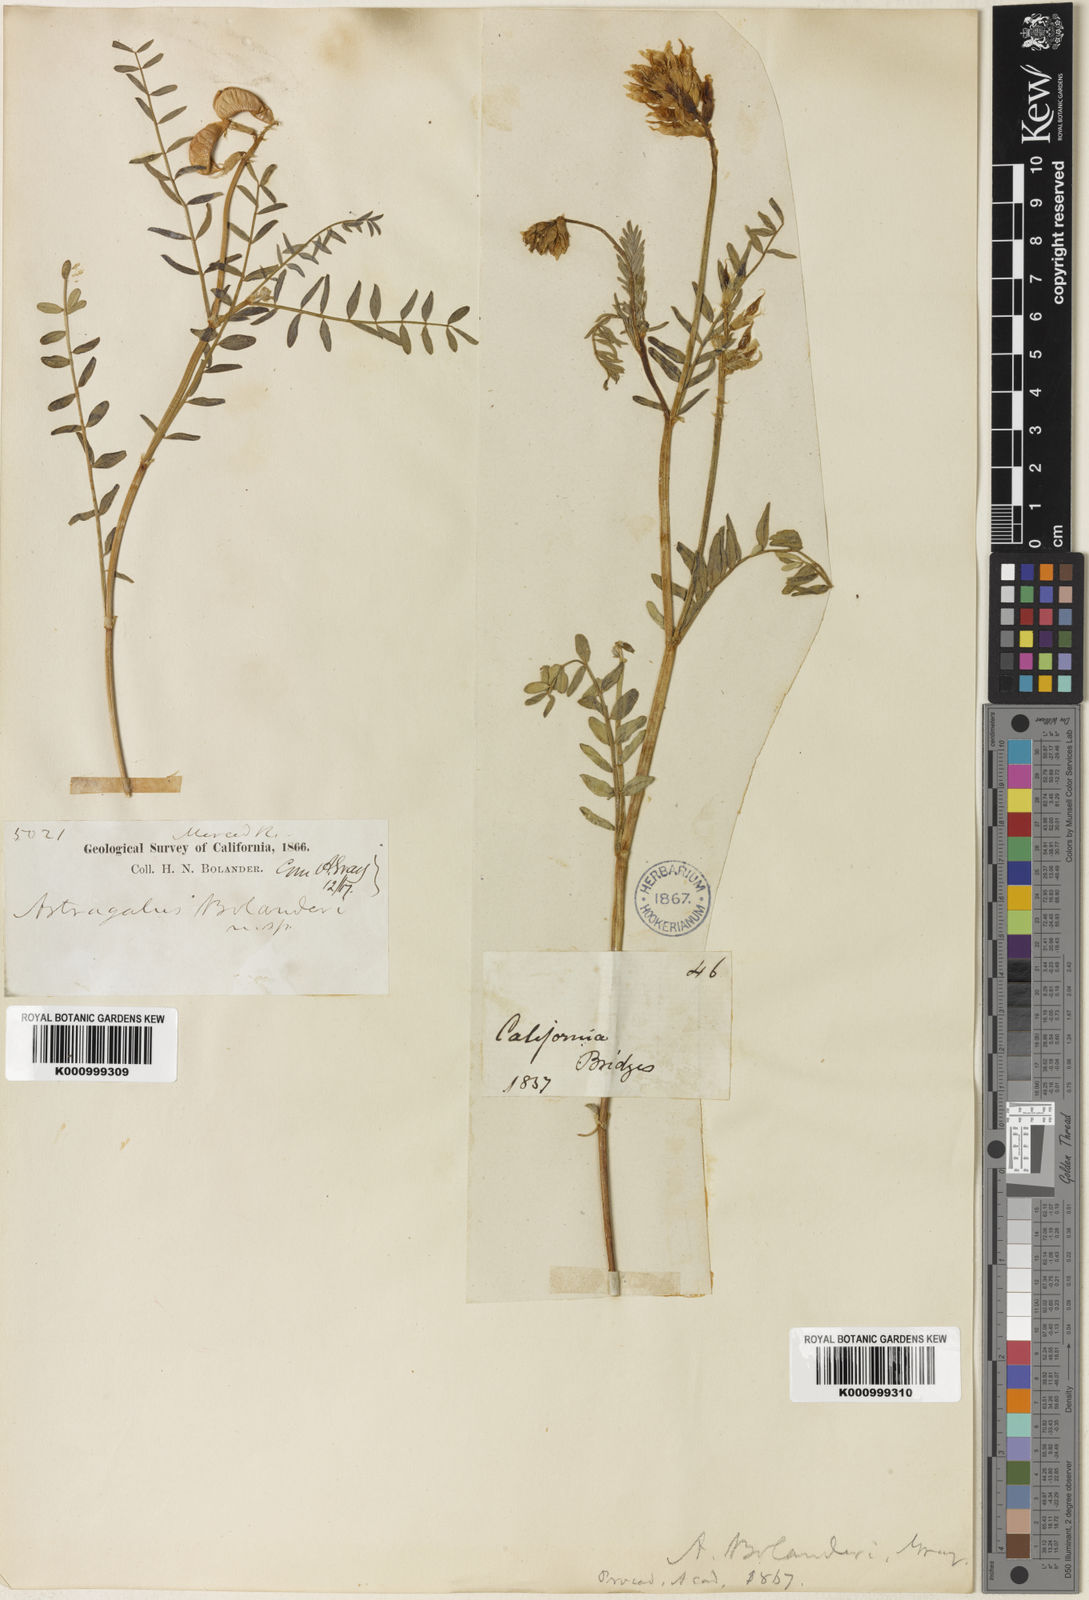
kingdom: Plantae
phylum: Tracheophyta
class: Magnoliopsida
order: Fabales
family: Fabaceae
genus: Astragalus
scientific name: Astragalus bolanderi
